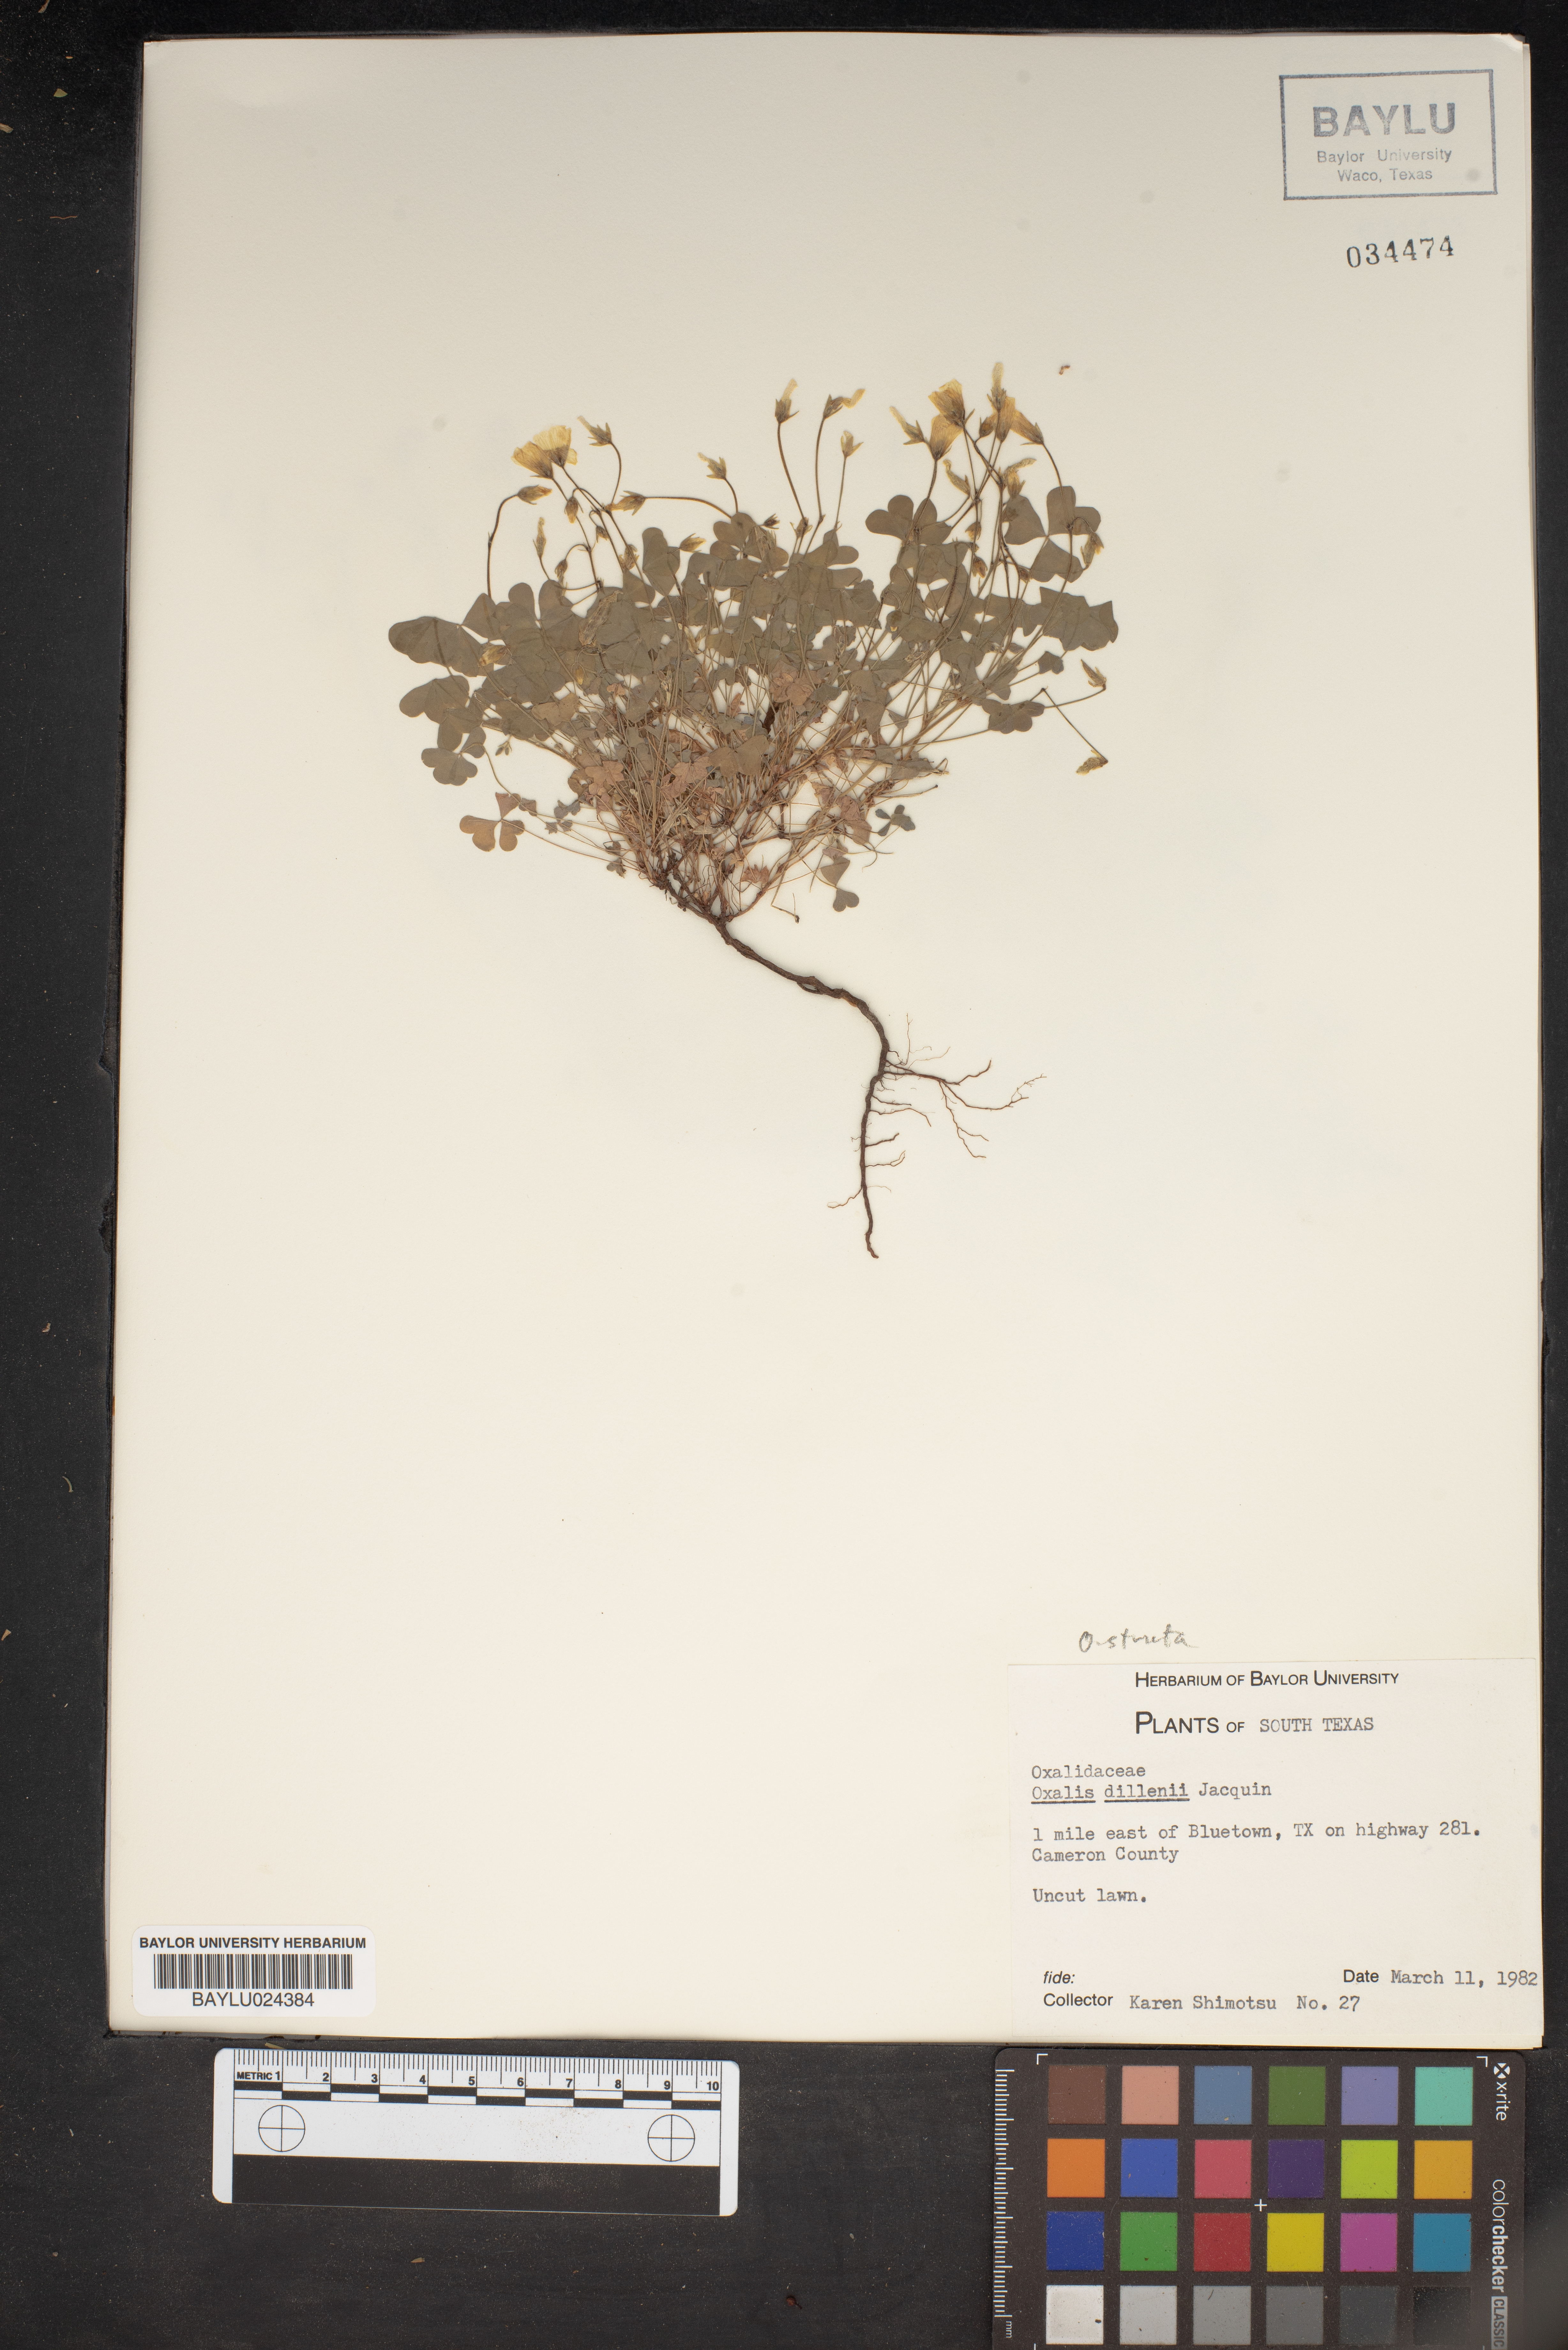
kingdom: Plantae
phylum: Tracheophyta
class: Magnoliopsida
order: Oxalidales
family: Oxalidaceae
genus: Oxalis
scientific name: Oxalis dillenii
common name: Sussex yellow-sorrel
